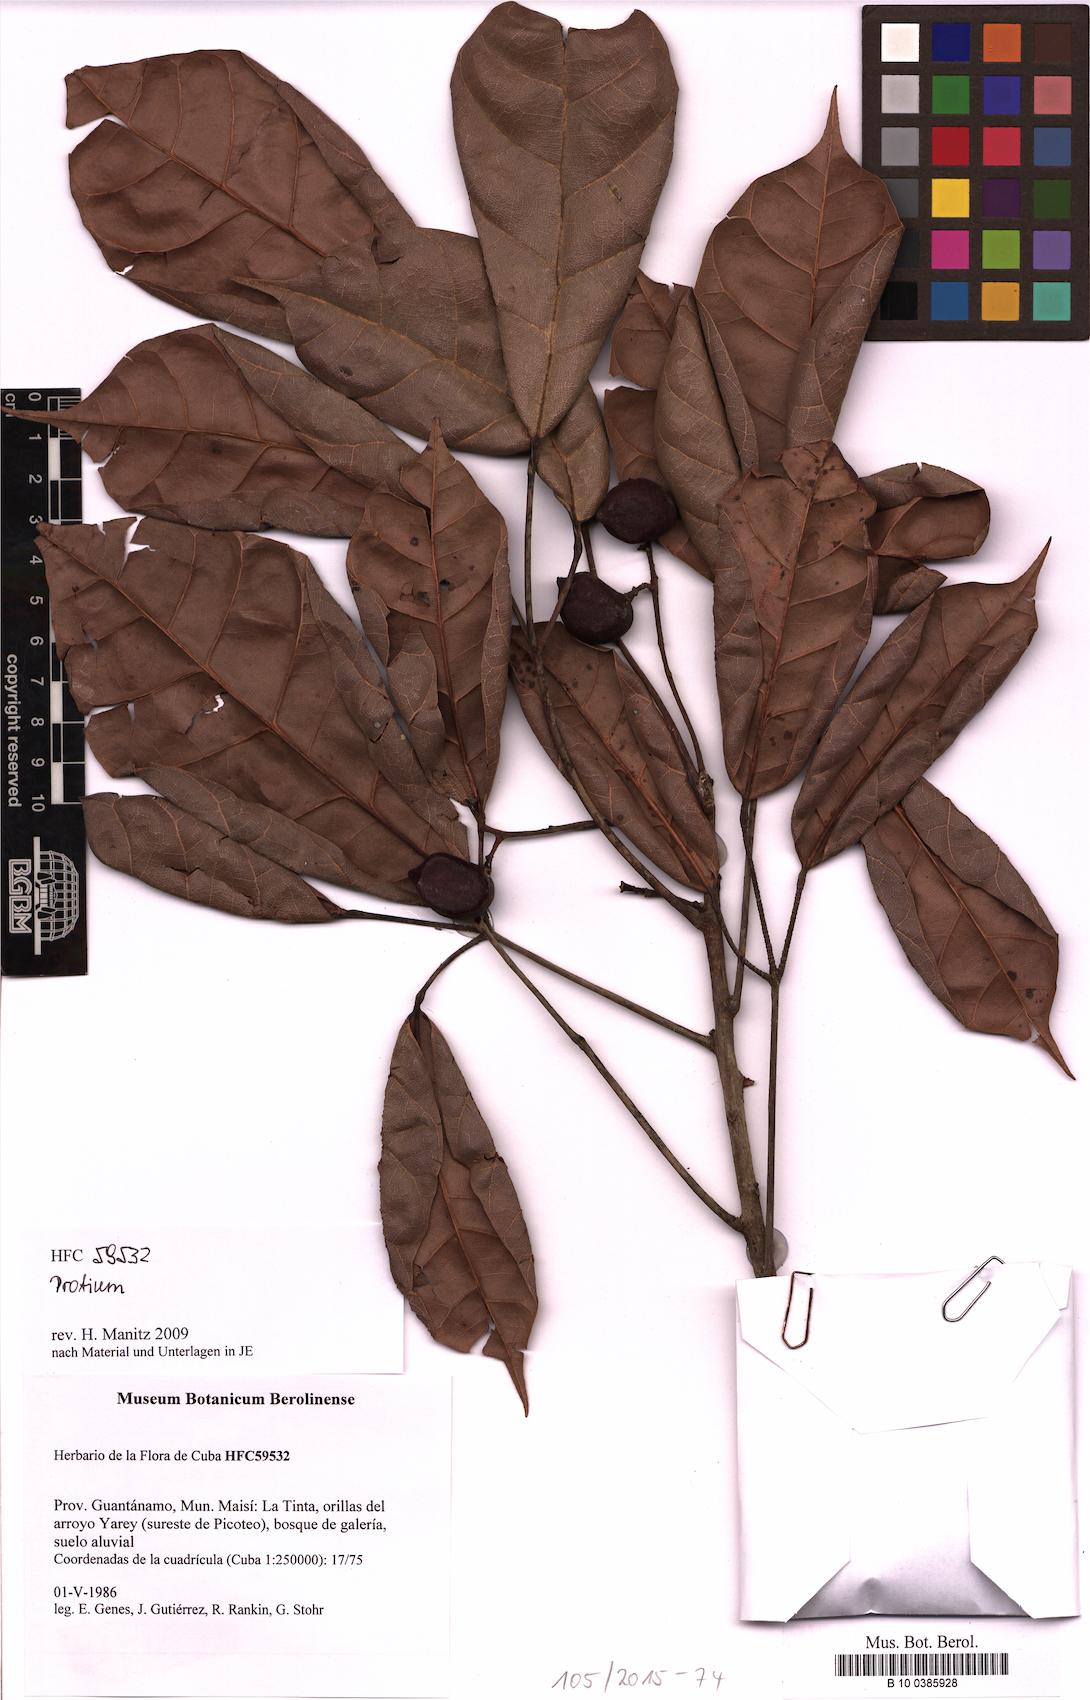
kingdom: Plantae
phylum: Tracheophyta
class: Magnoliopsida
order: Sapindales
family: Burseraceae
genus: Protium
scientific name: Protium
